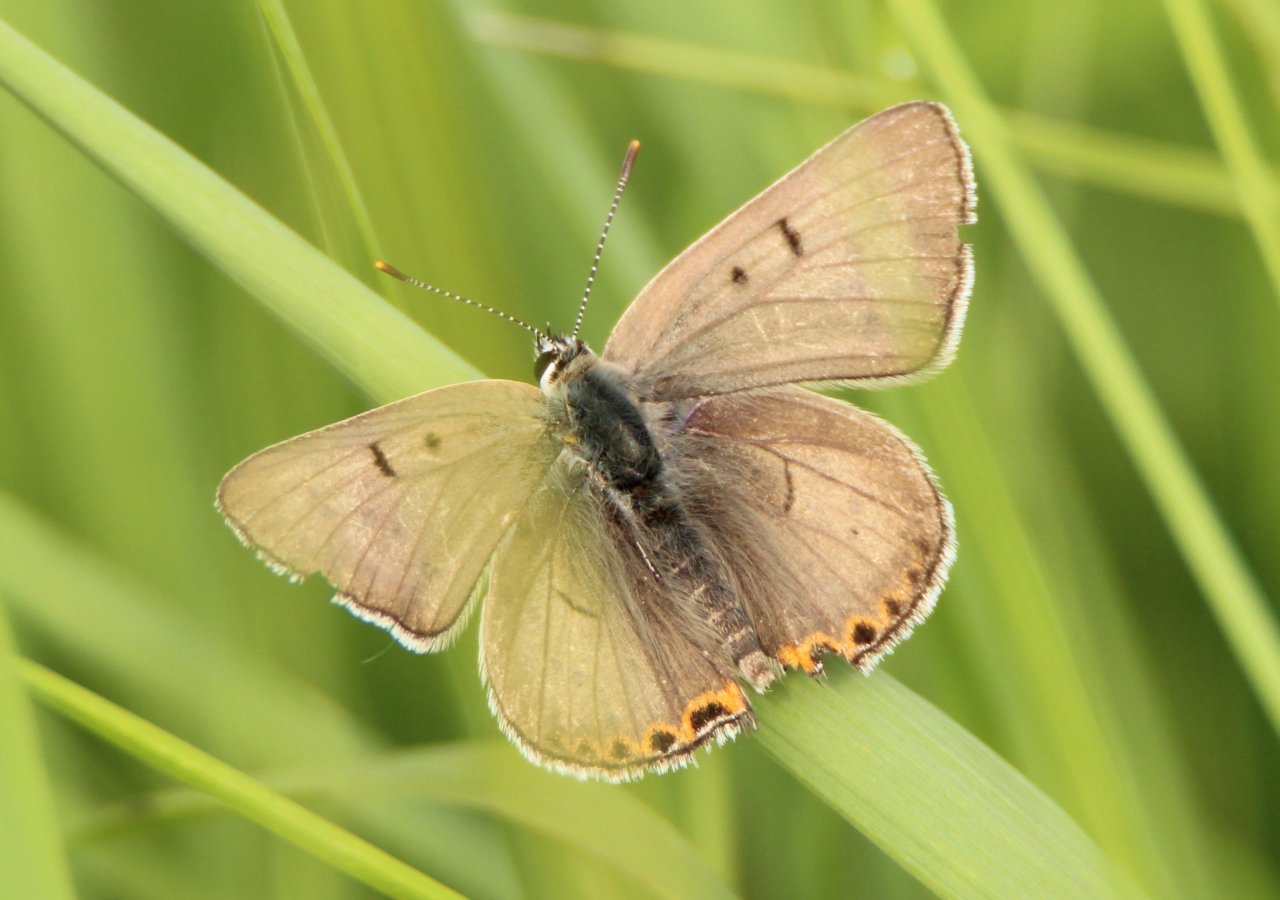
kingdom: Animalia
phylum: Arthropoda
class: Insecta
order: Lepidoptera
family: Lycaenidae
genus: Nacaduba
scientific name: Nacaduba dyopa
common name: Gray Copper
